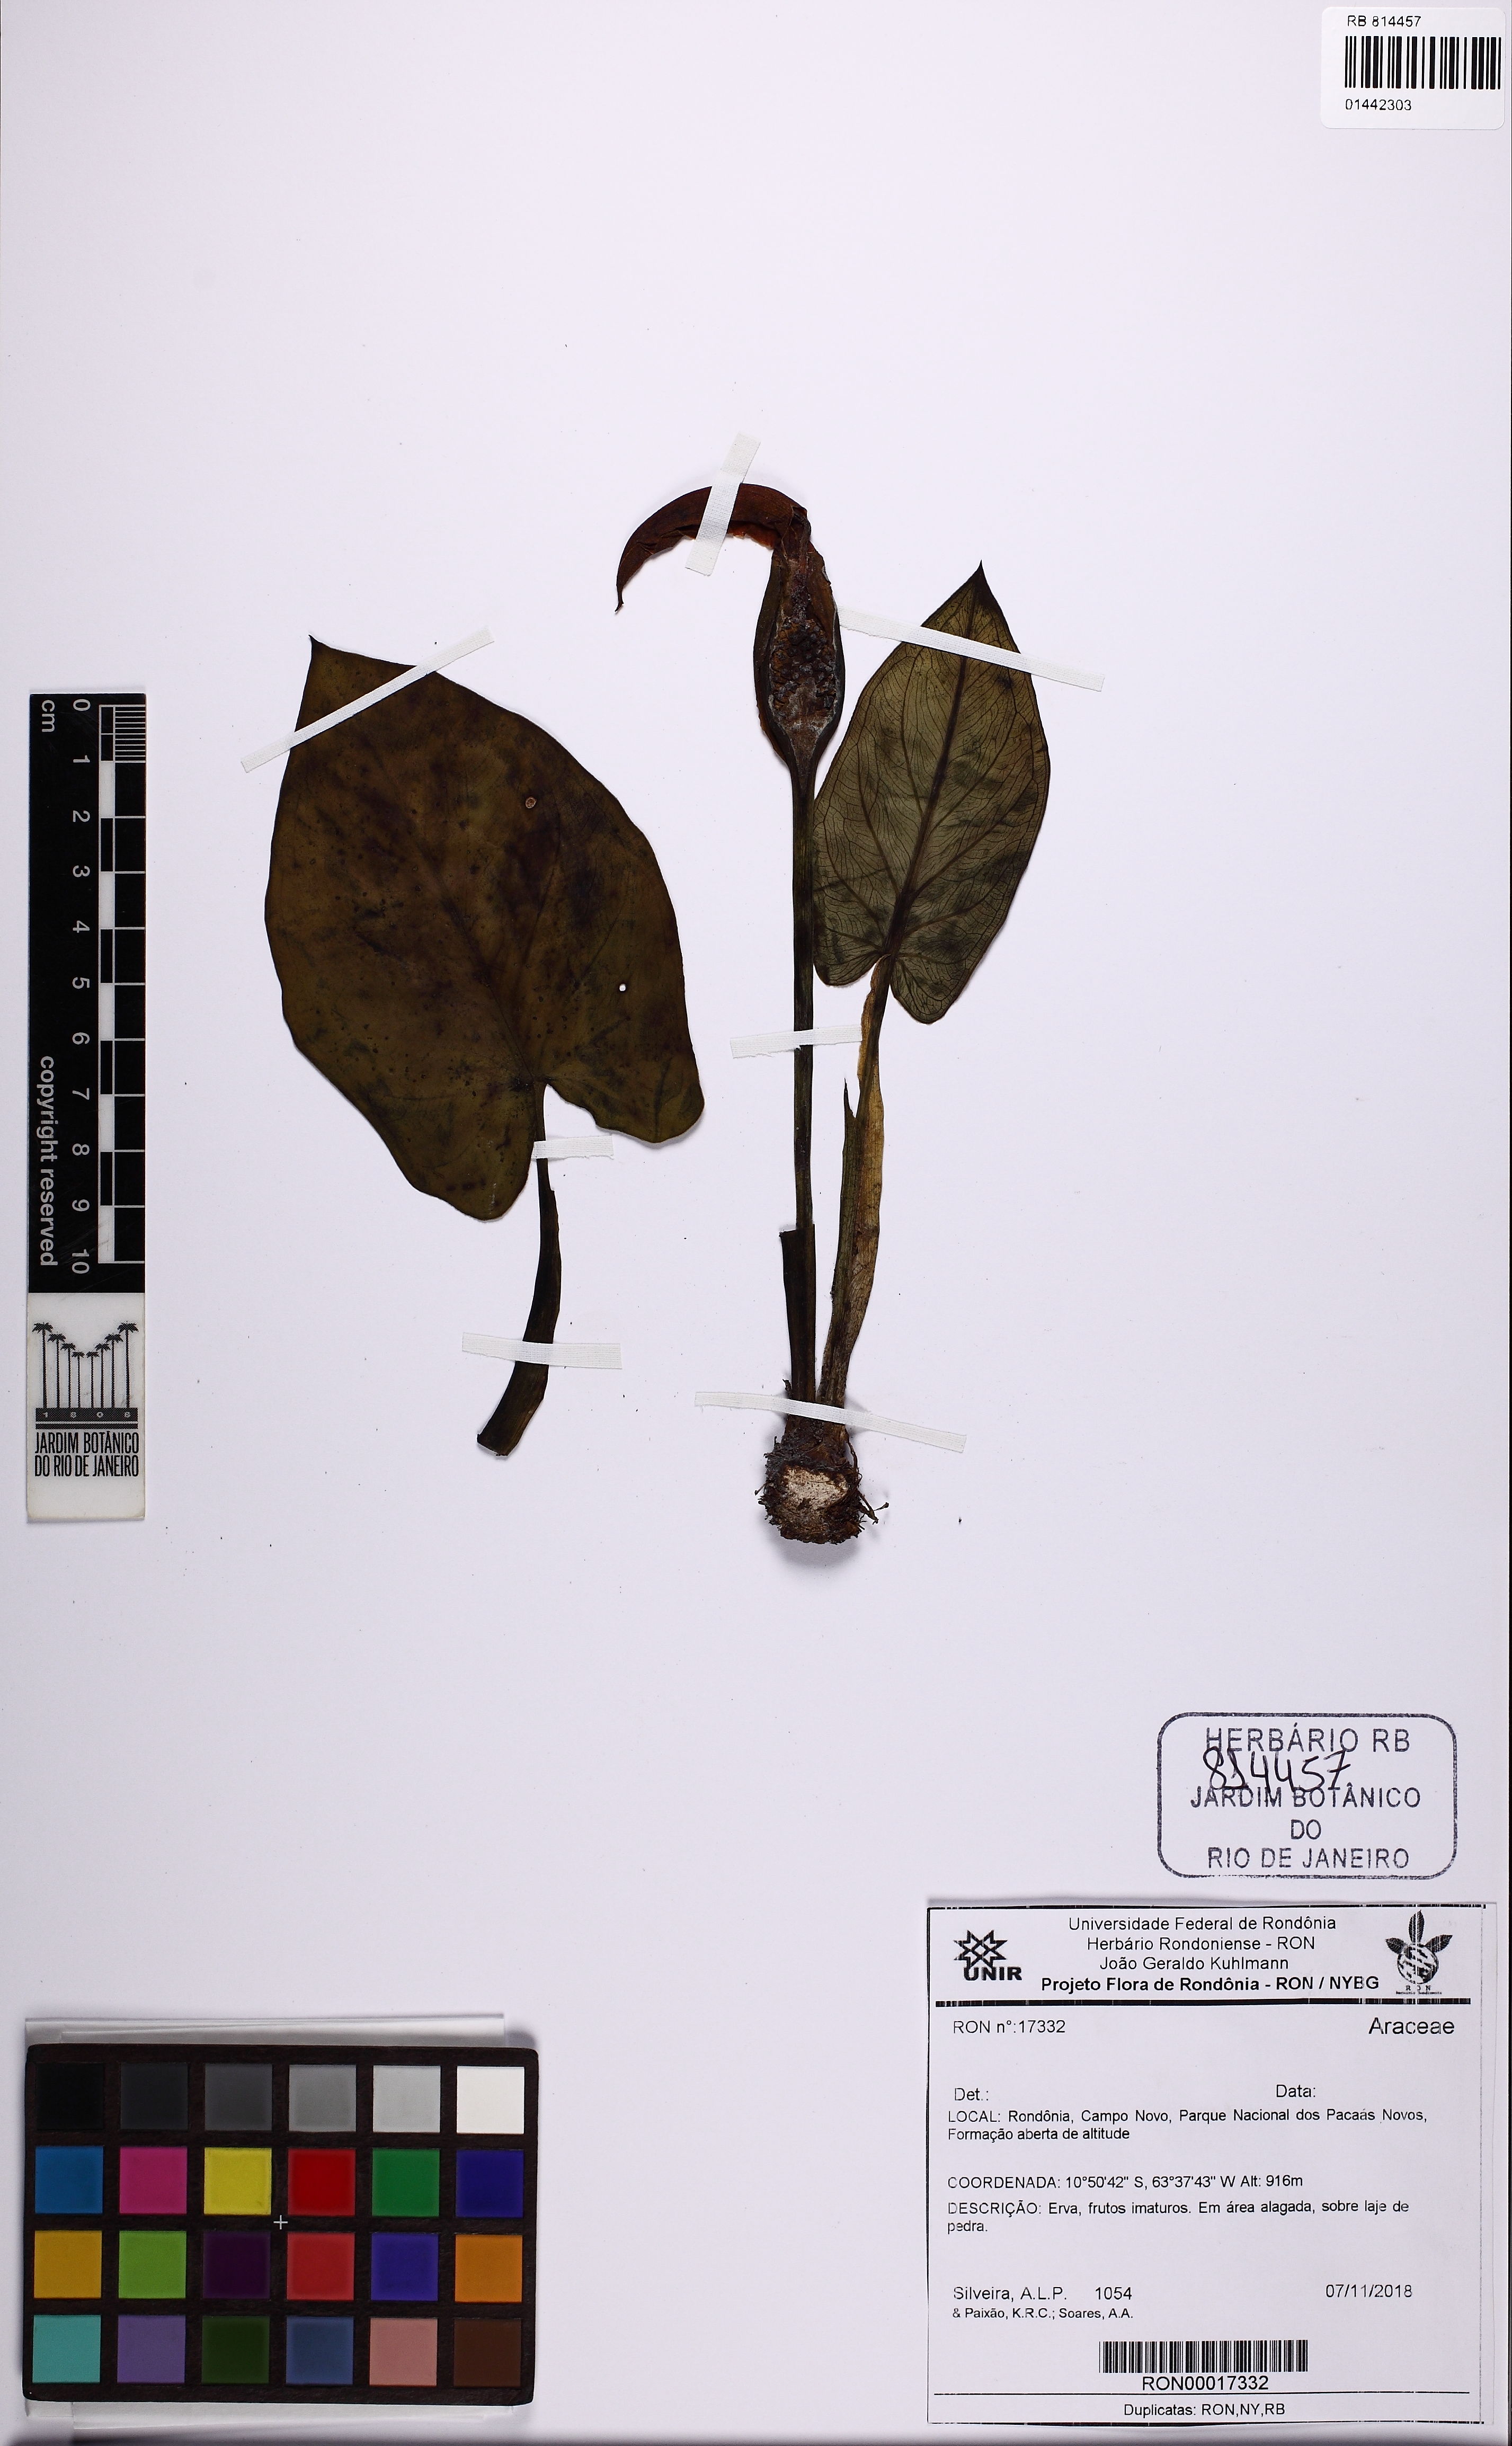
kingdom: Plantae
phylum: Tracheophyta
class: Liliopsida
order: Alismatales
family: Araceae
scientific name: Araceae
